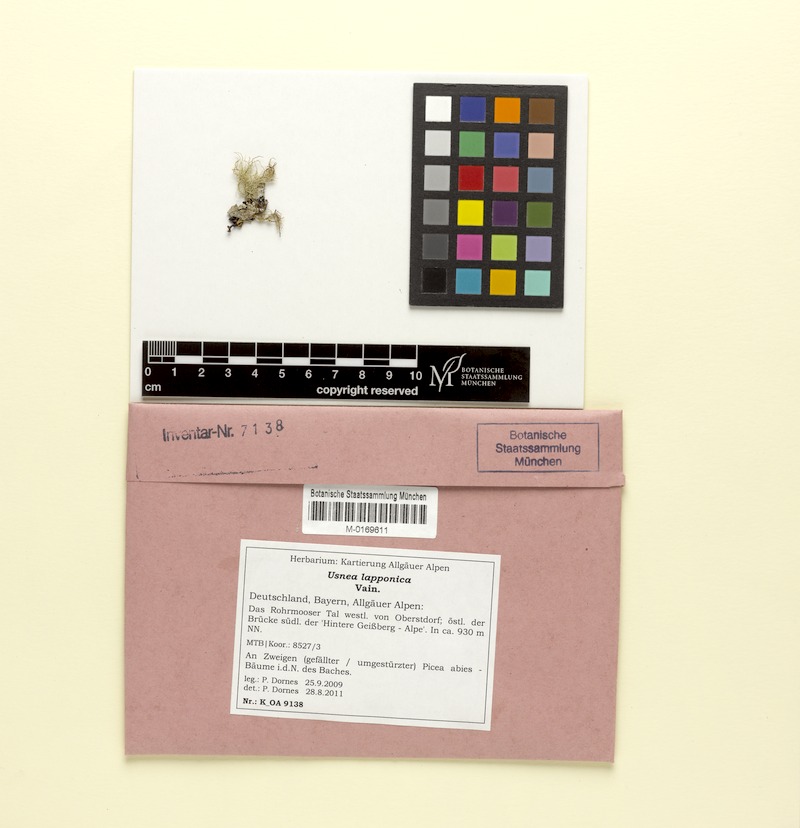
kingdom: Fungi
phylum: Ascomycota
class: Lecanoromycetes
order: Lecanorales
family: Parmeliaceae
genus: Usnea
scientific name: Usnea lapponica
